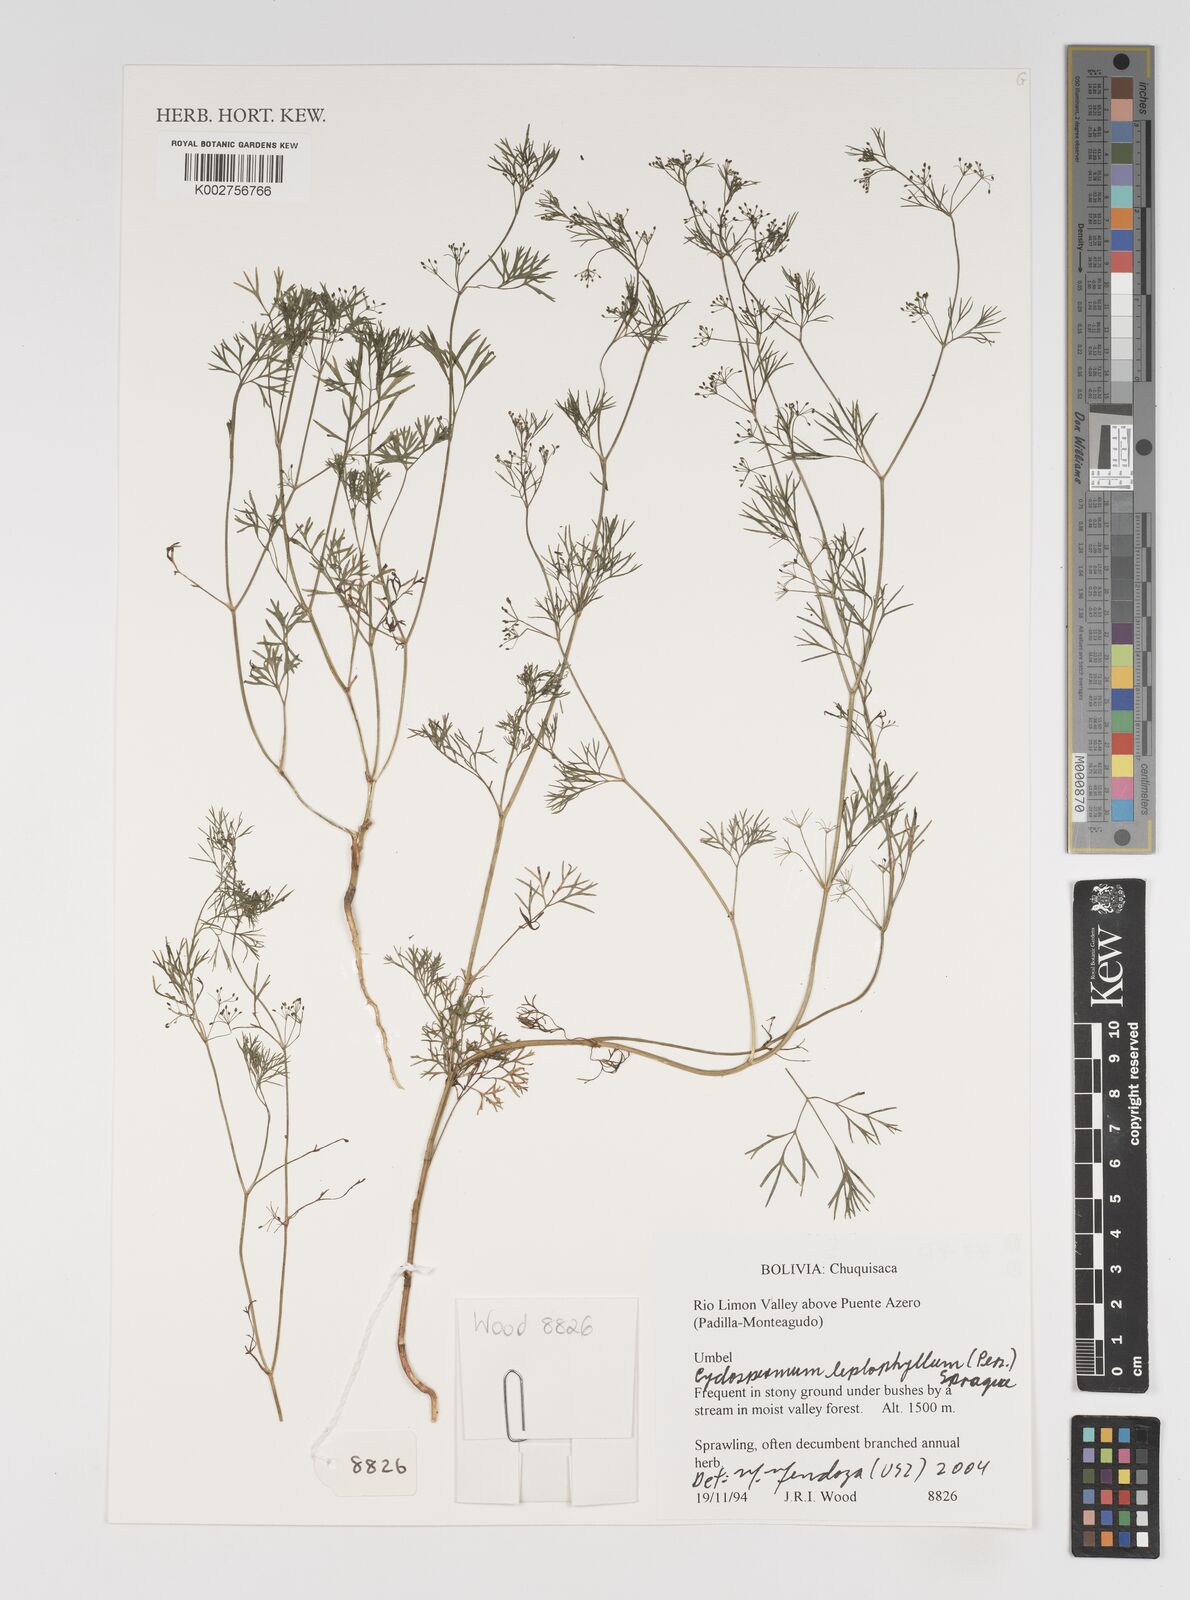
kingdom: Plantae
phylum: Tracheophyta
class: Magnoliopsida
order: Apiales
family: Apiaceae
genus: Cyclospermum
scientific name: Cyclospermum leptophyllum
